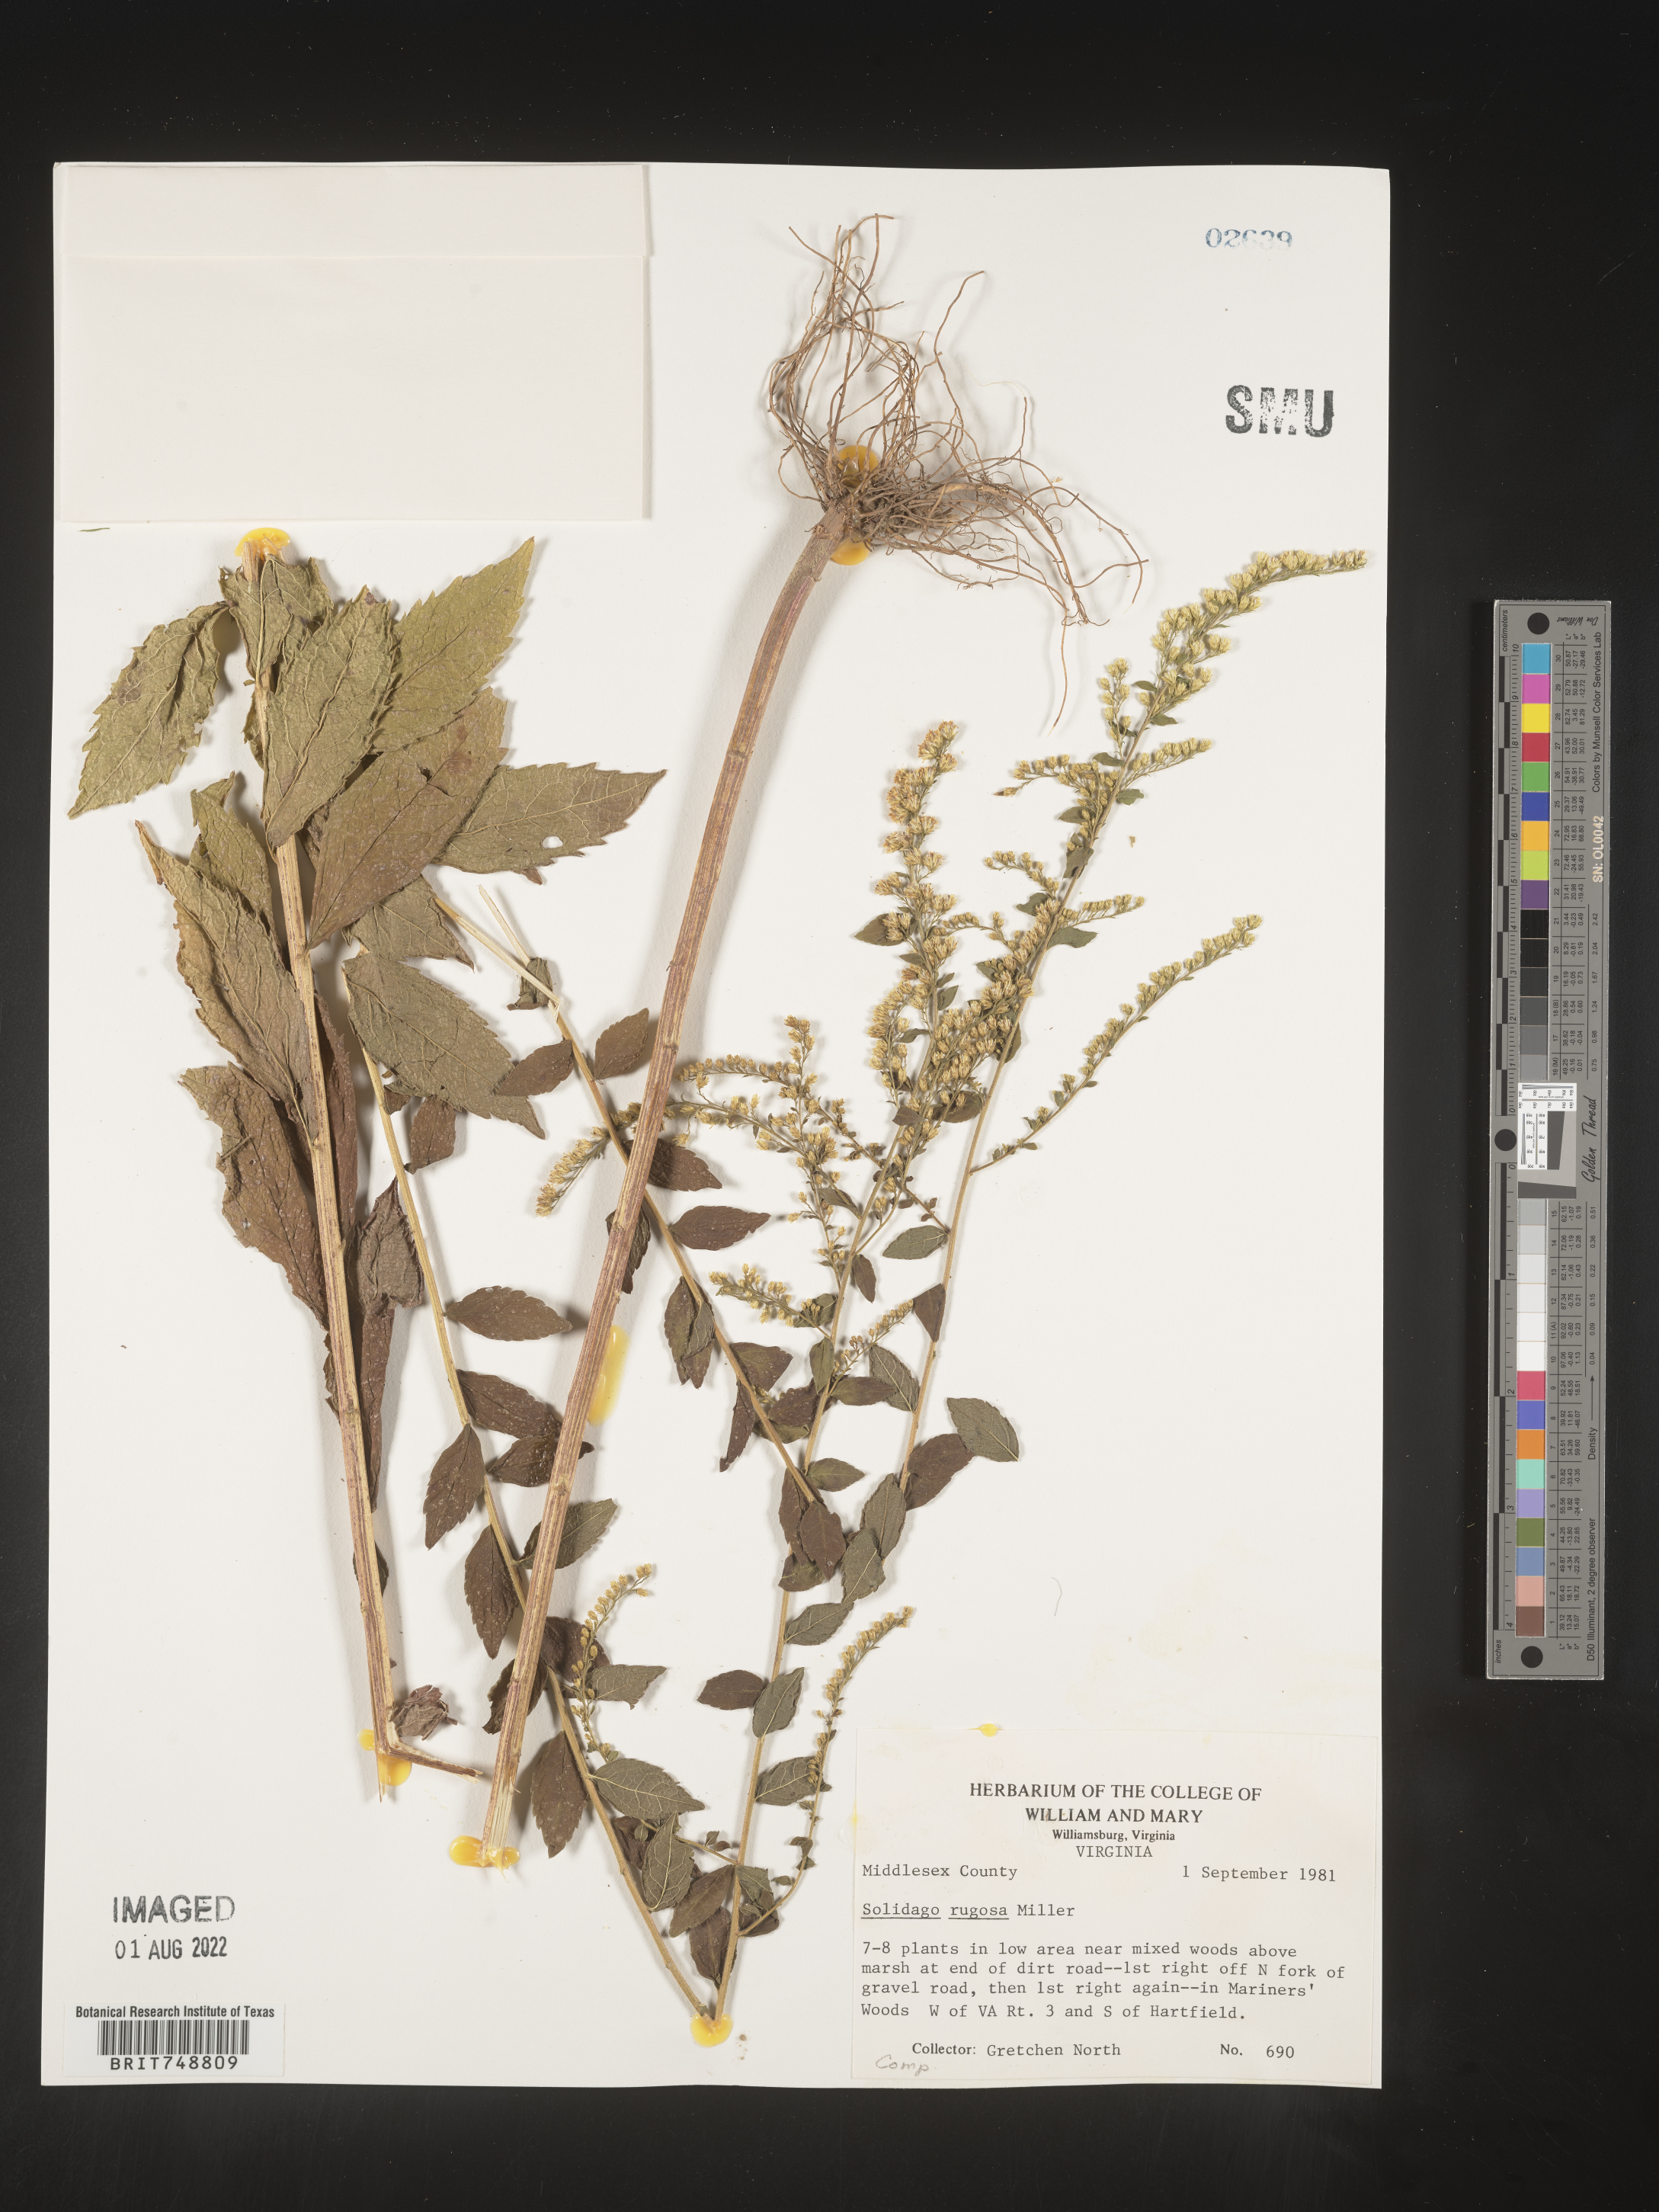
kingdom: Plantae
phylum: Tracheophyta
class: Magnoliopsida
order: Asterales
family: Asteraceae
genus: Solidago
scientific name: Solidago rugosa
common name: Rough-stemmed goldenrod
